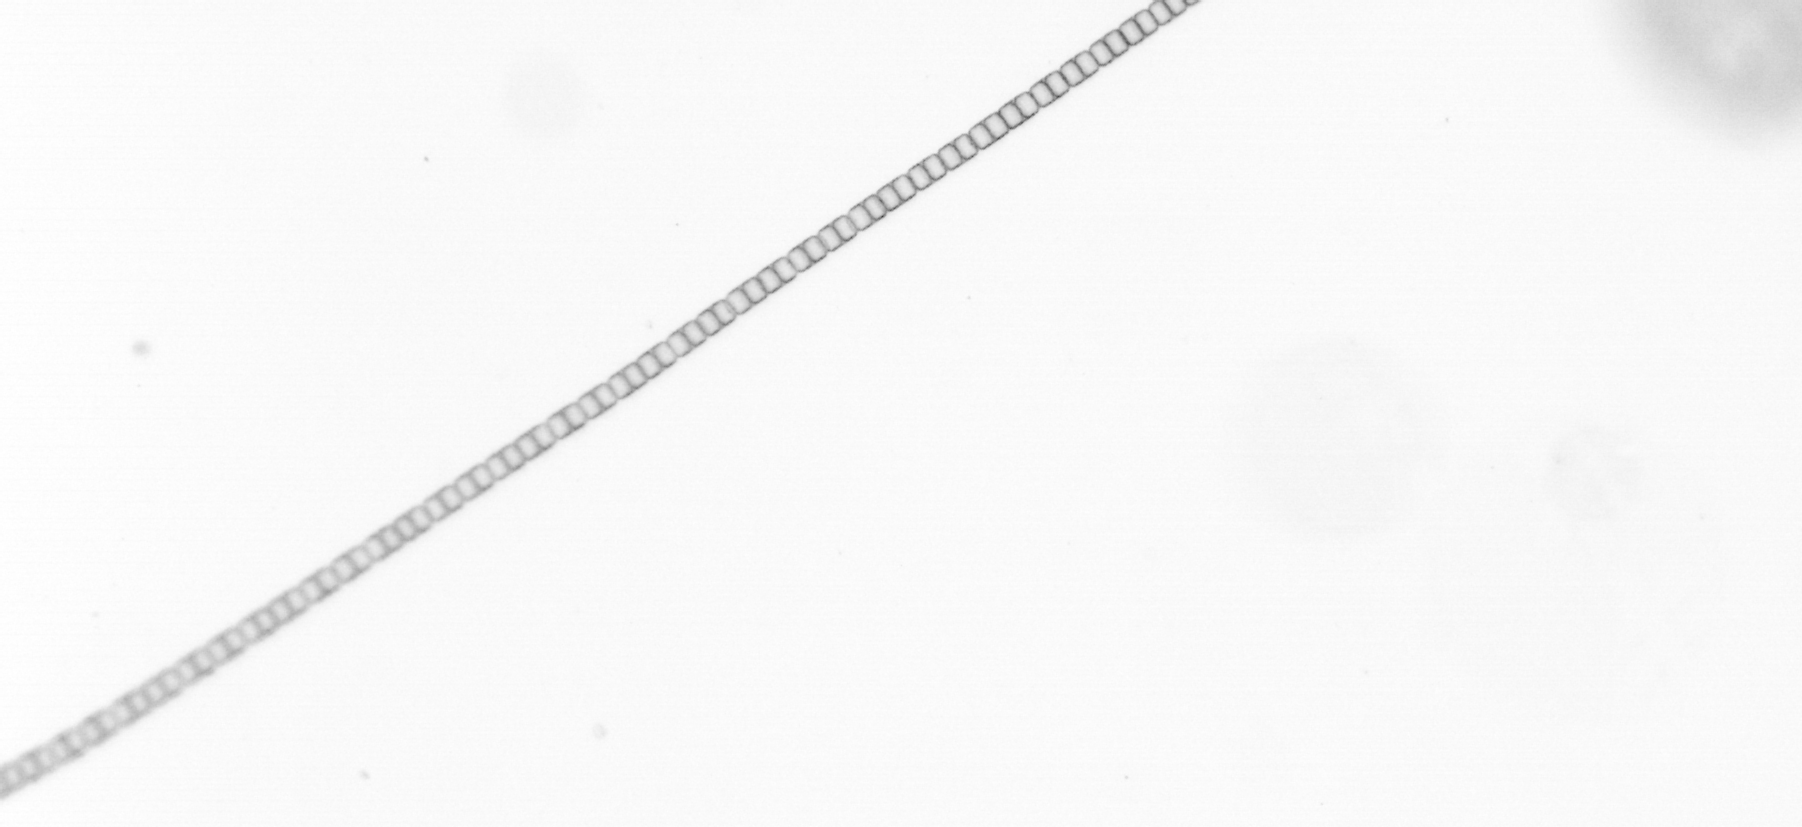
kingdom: Chromista
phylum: Ochrophyta
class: Bacillariophyceae
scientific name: Bacillariophyceae
